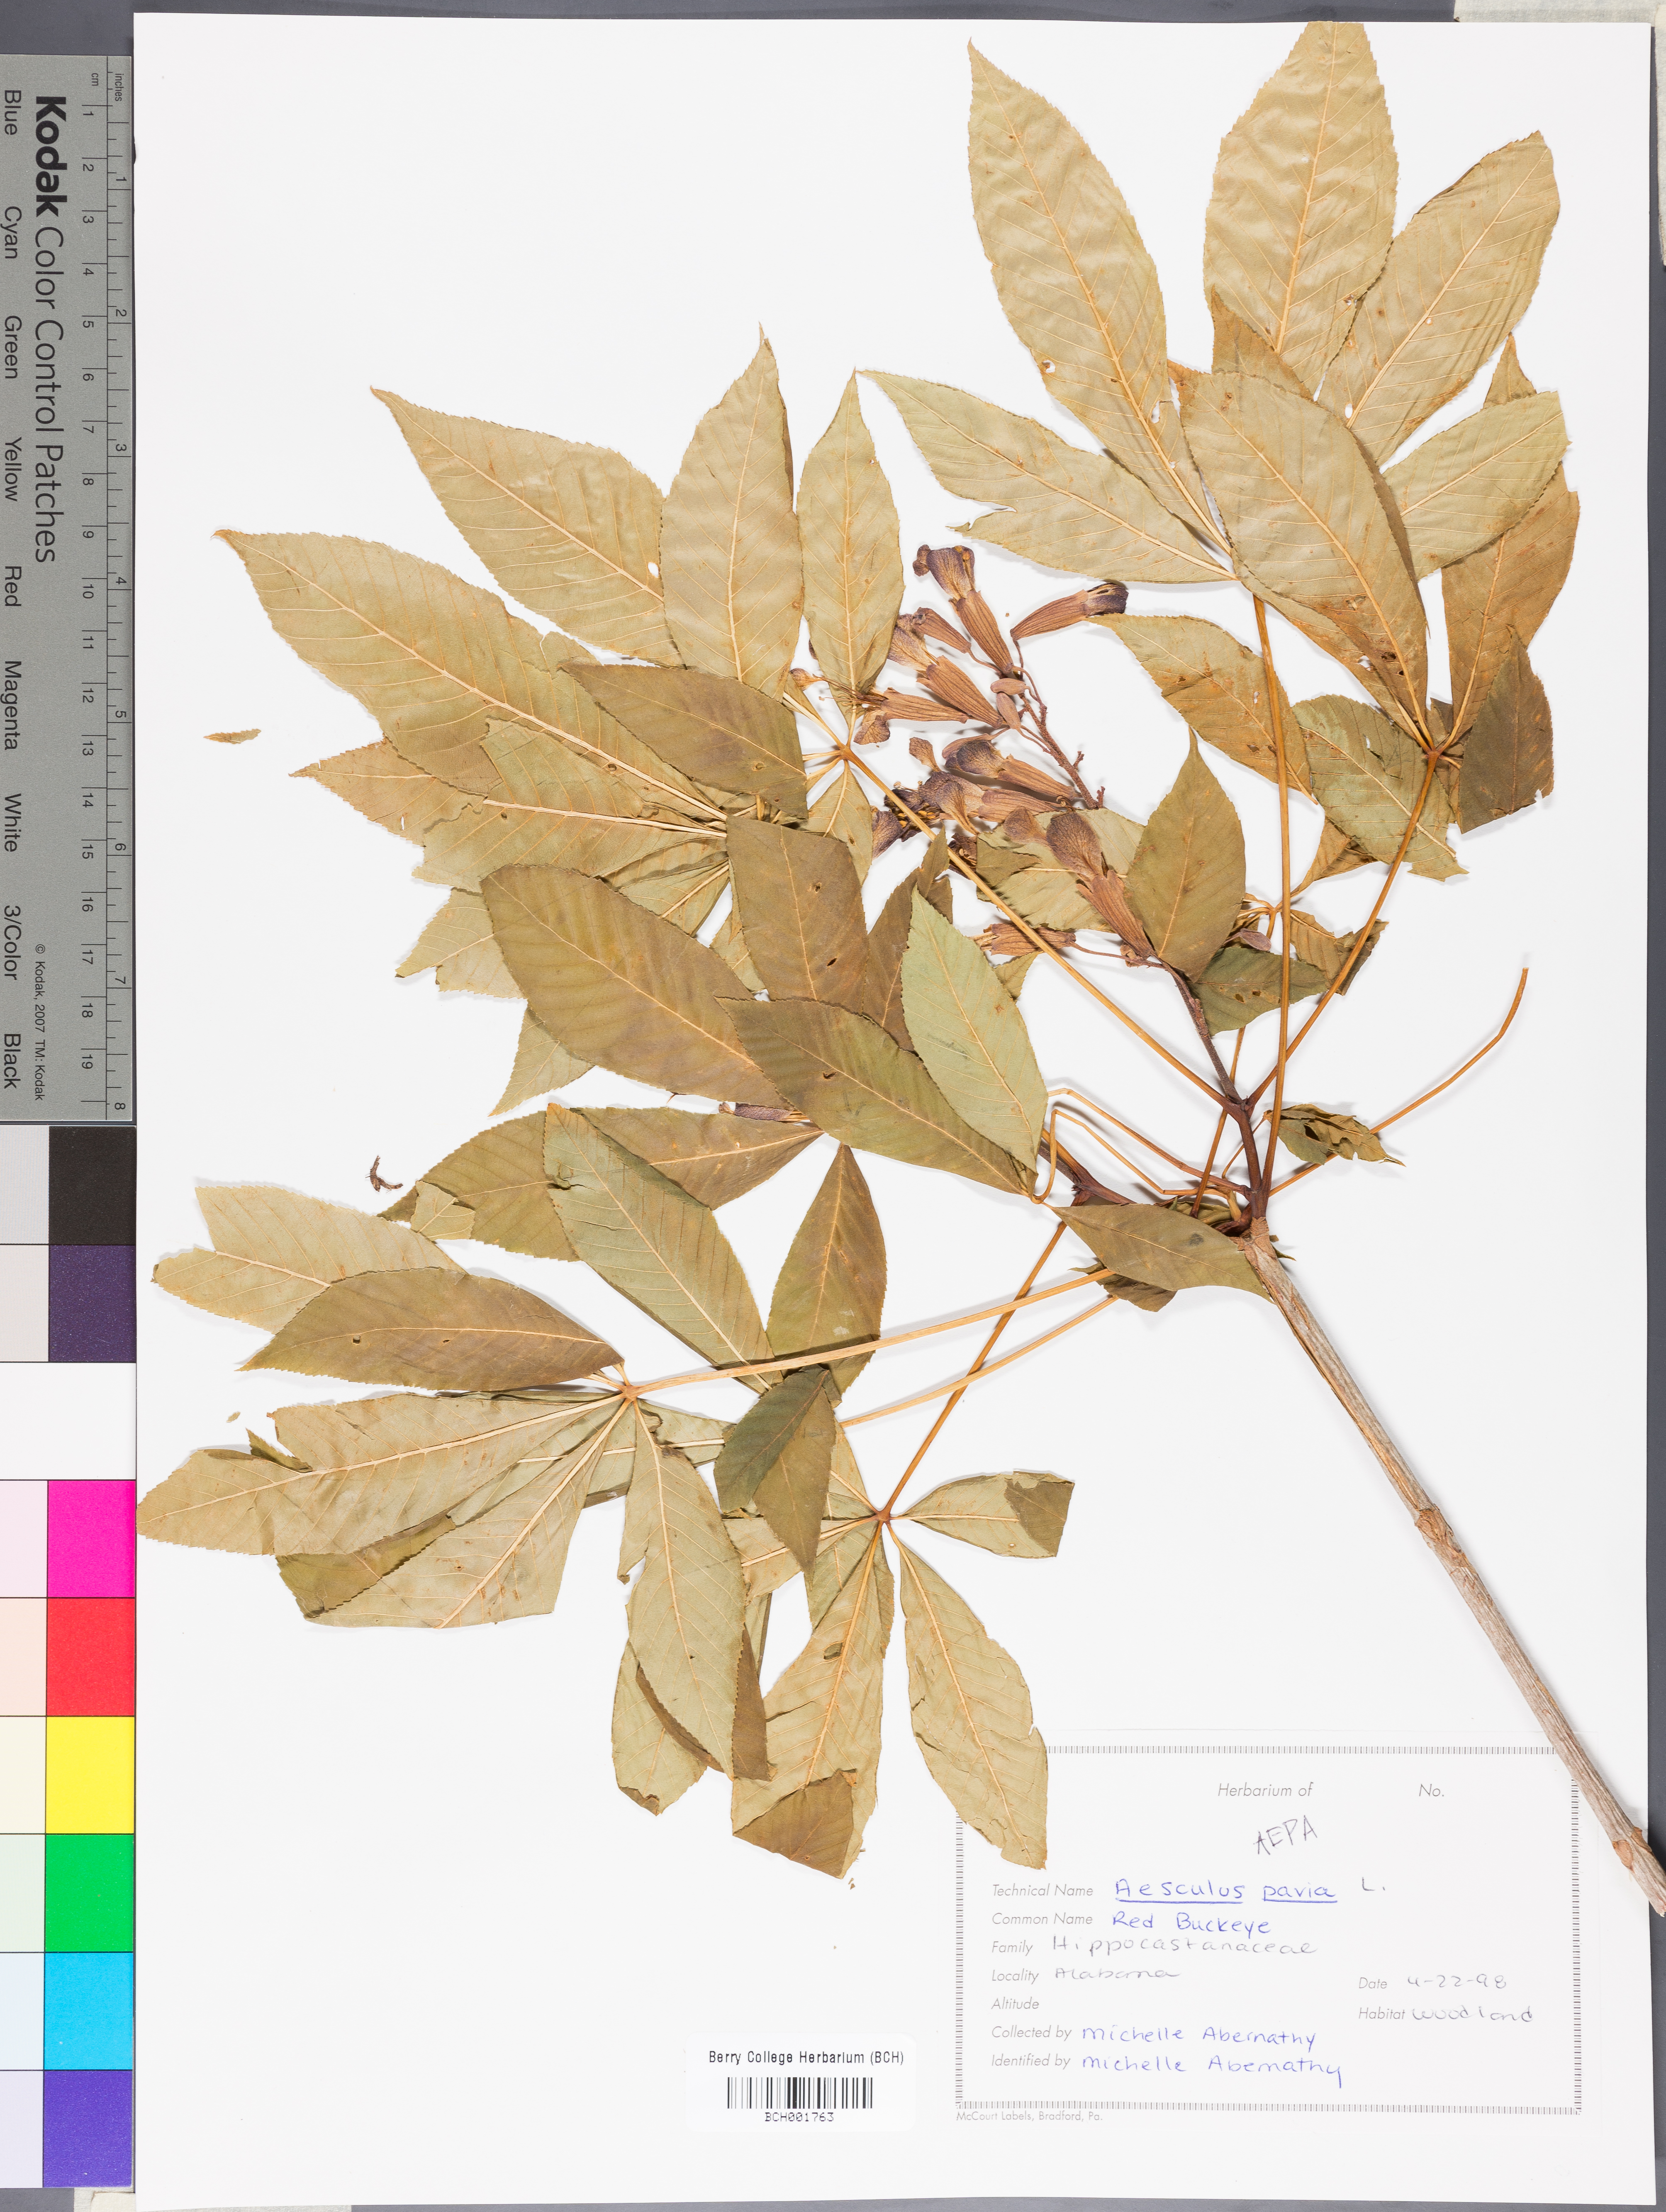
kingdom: Plantae
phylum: Tracheophyta
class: Magnoliopsida
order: Sapindales
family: Sapindaceae
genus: Aesculus
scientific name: Aesculus pavia
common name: Red buckeye
